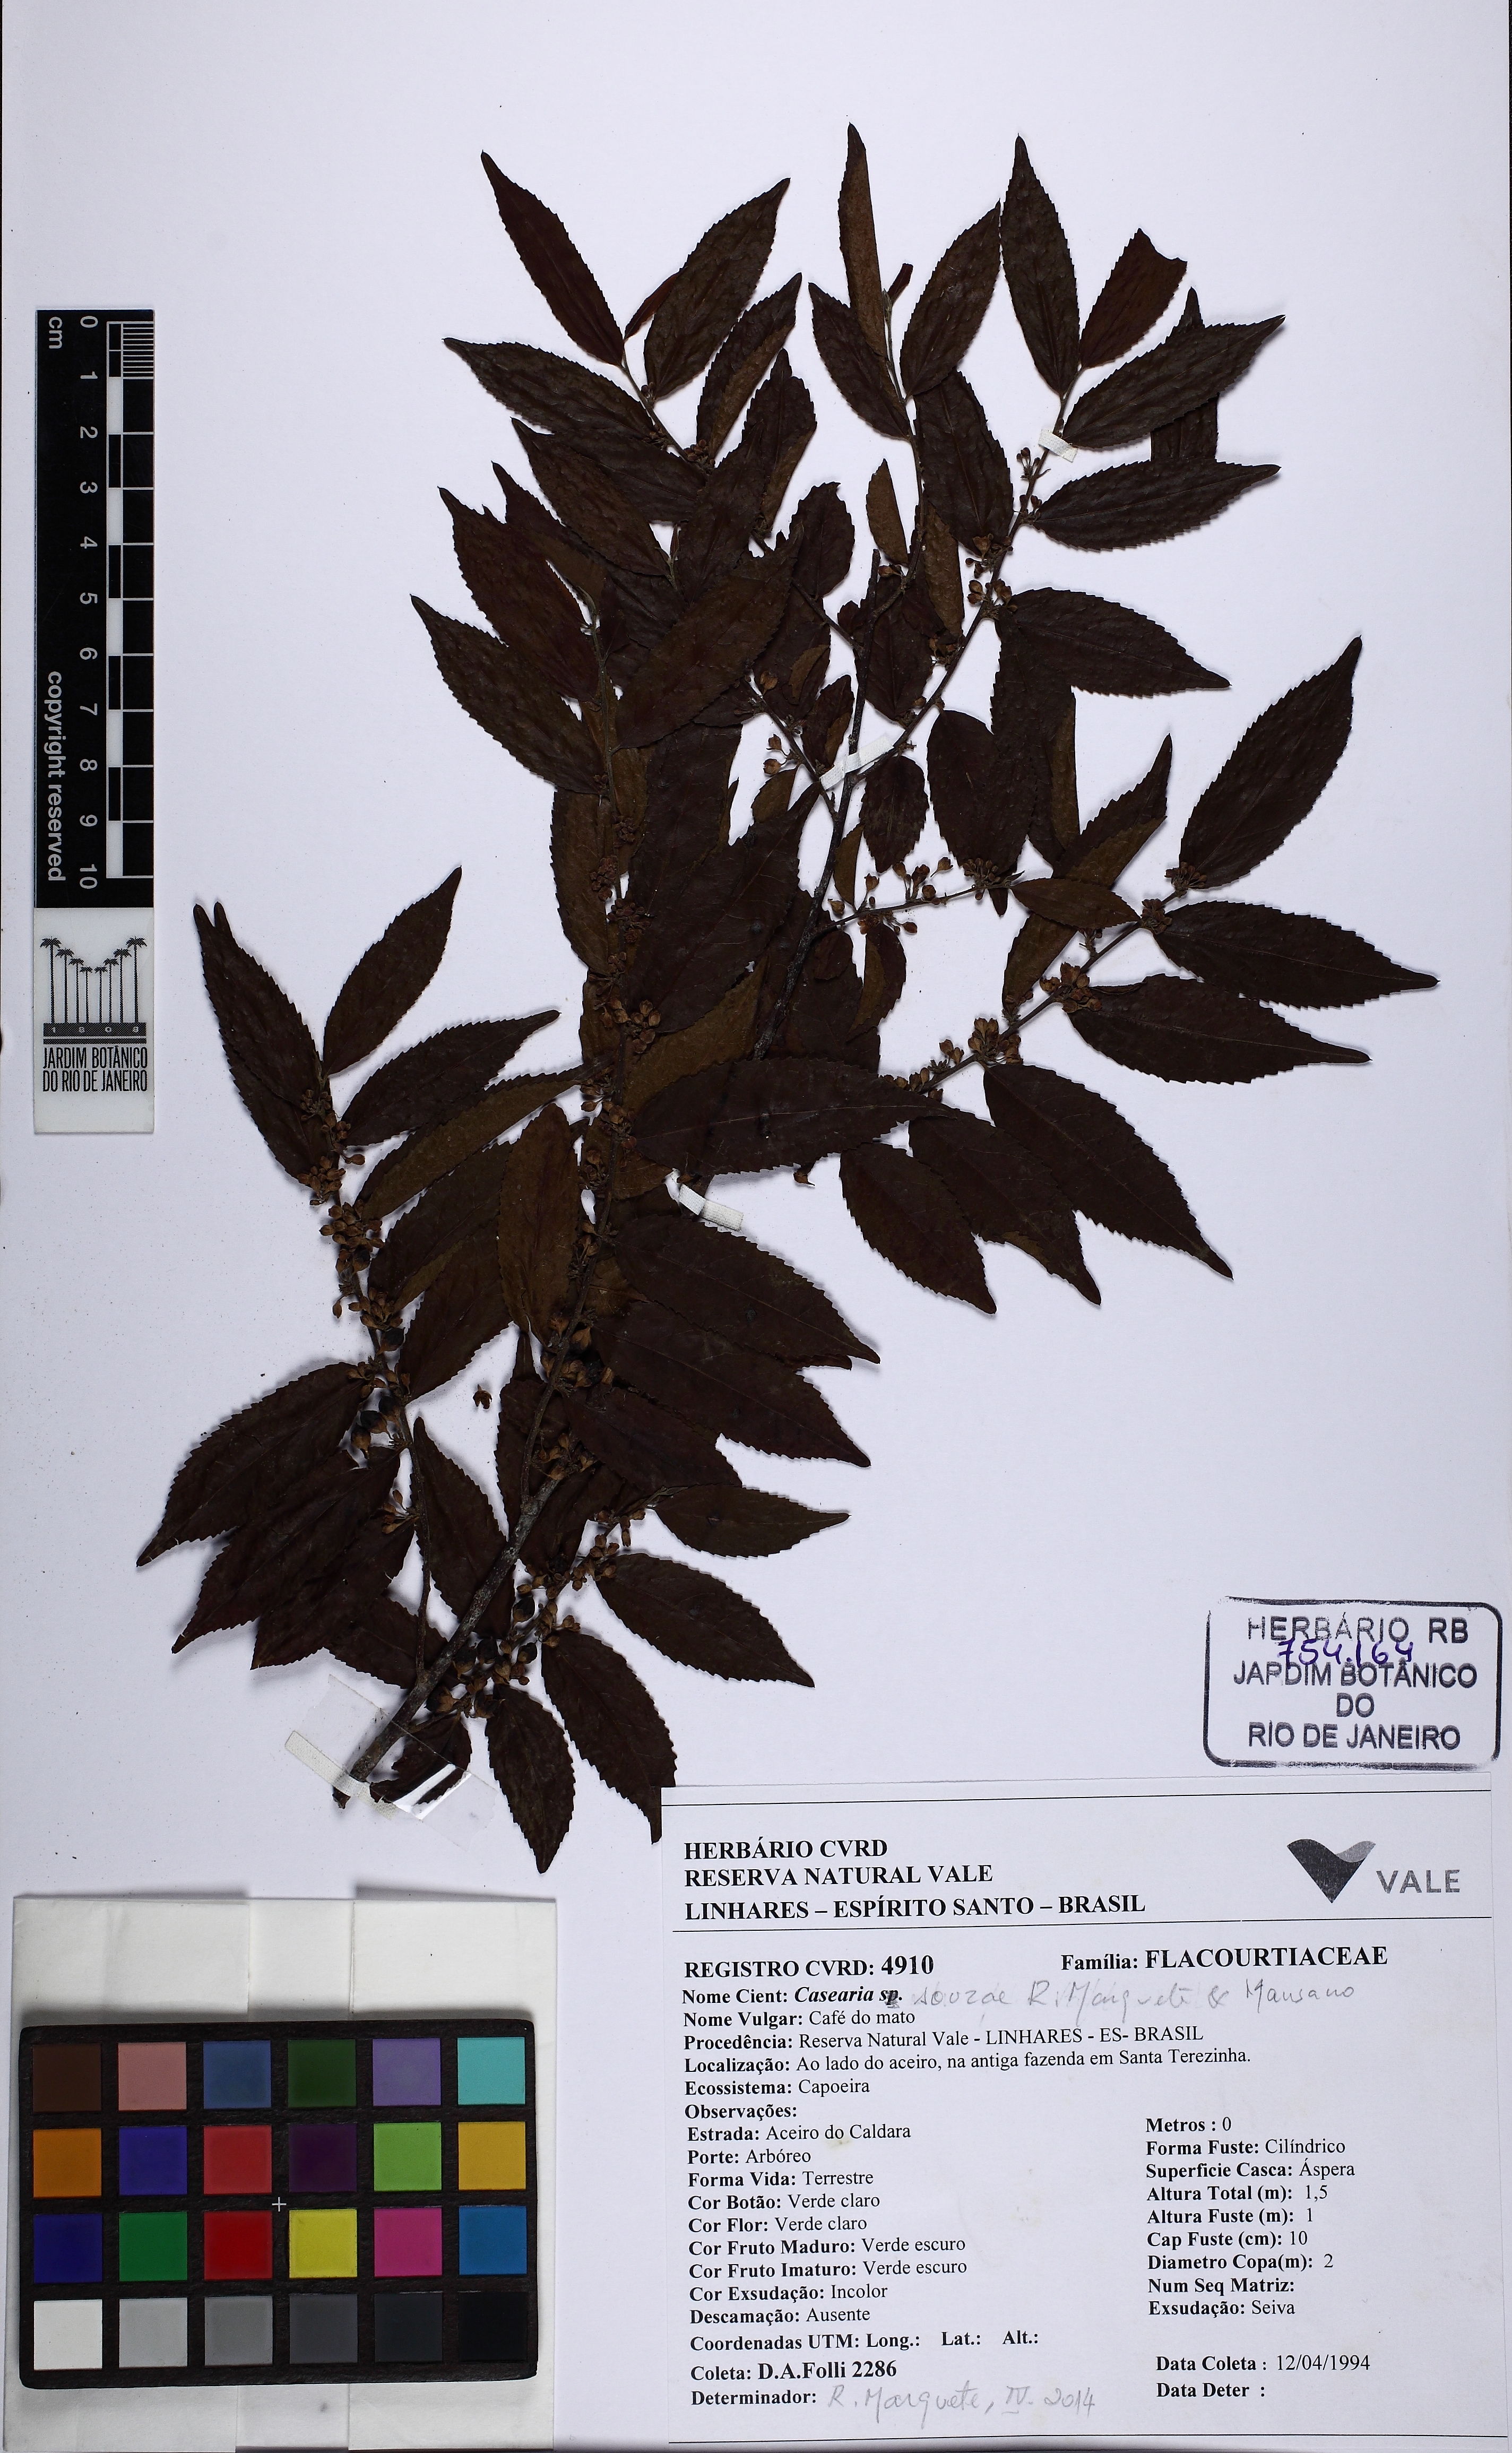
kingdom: Plantae
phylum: Tracheophyta
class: Magnoliopsida
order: Malpighiales
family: Salicaceae
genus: Casearia
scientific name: Casearia souzae
